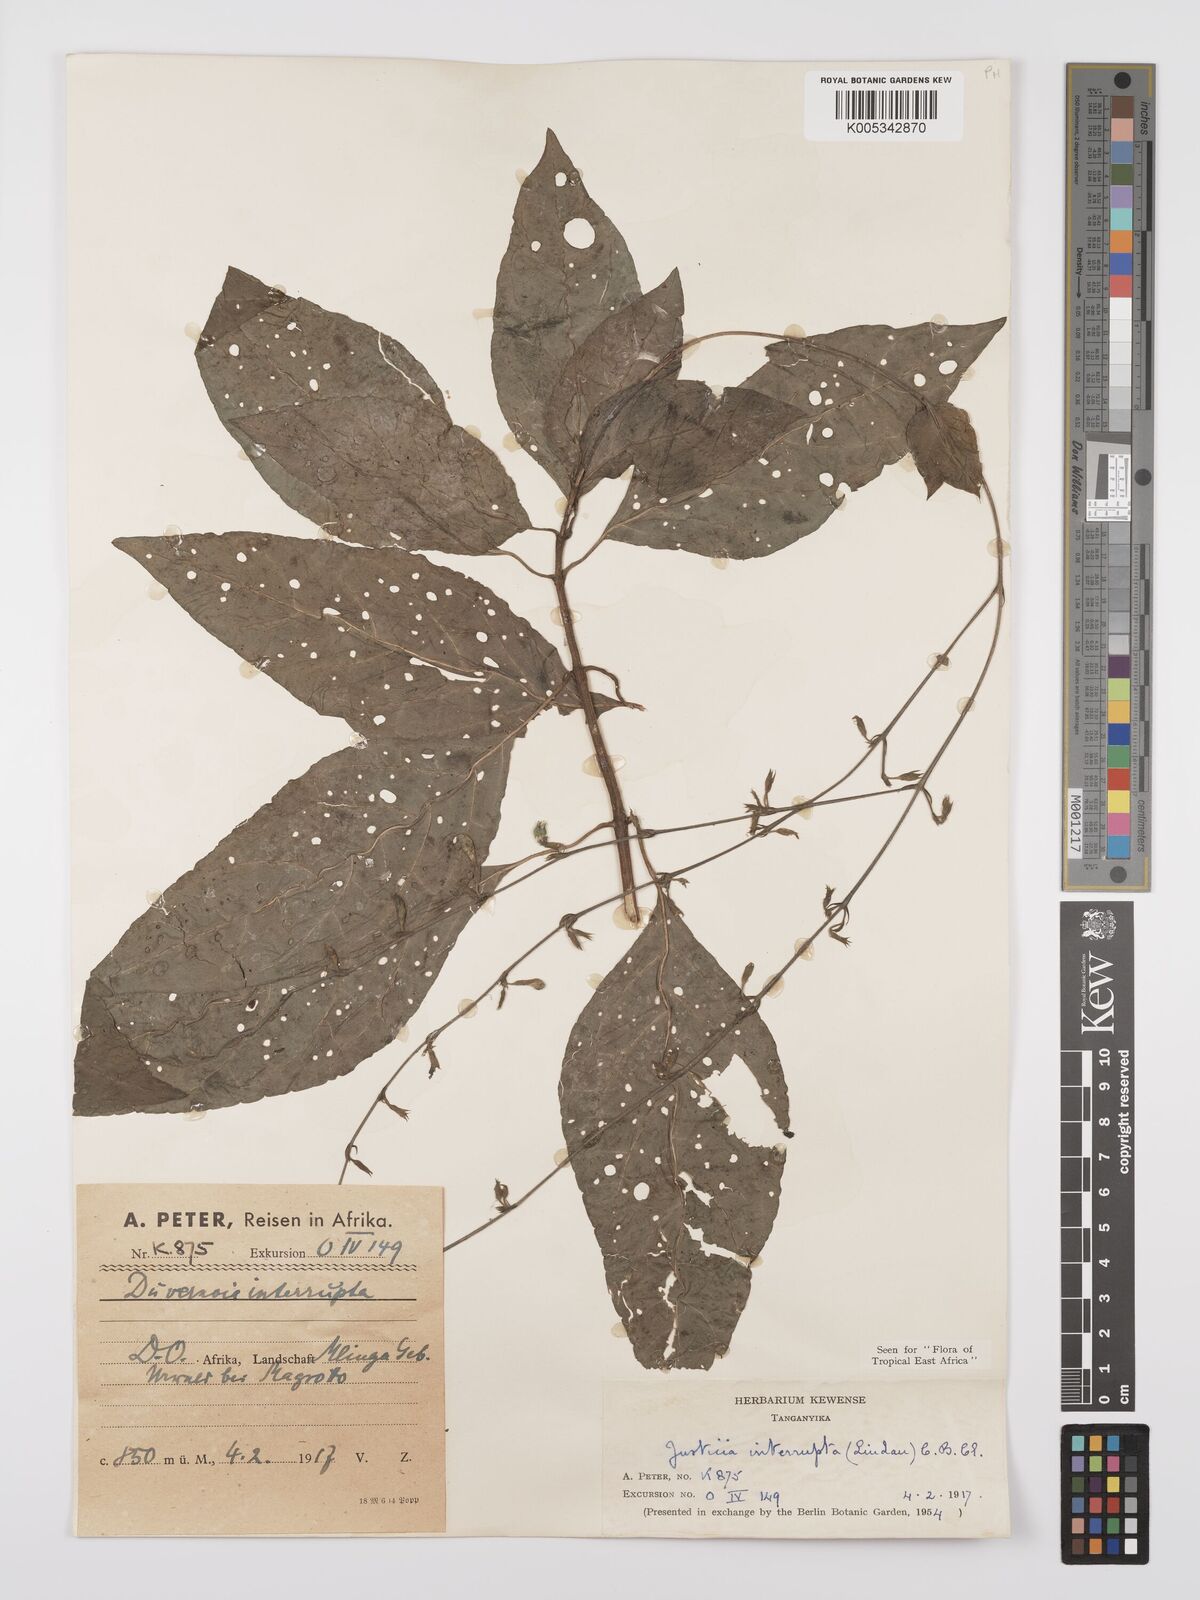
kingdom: Plantae
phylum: Tracheophyta
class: Magnoliopsida
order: Lamiales
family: Acanthaceae
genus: Justicia
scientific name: Justicia plectranthoides
